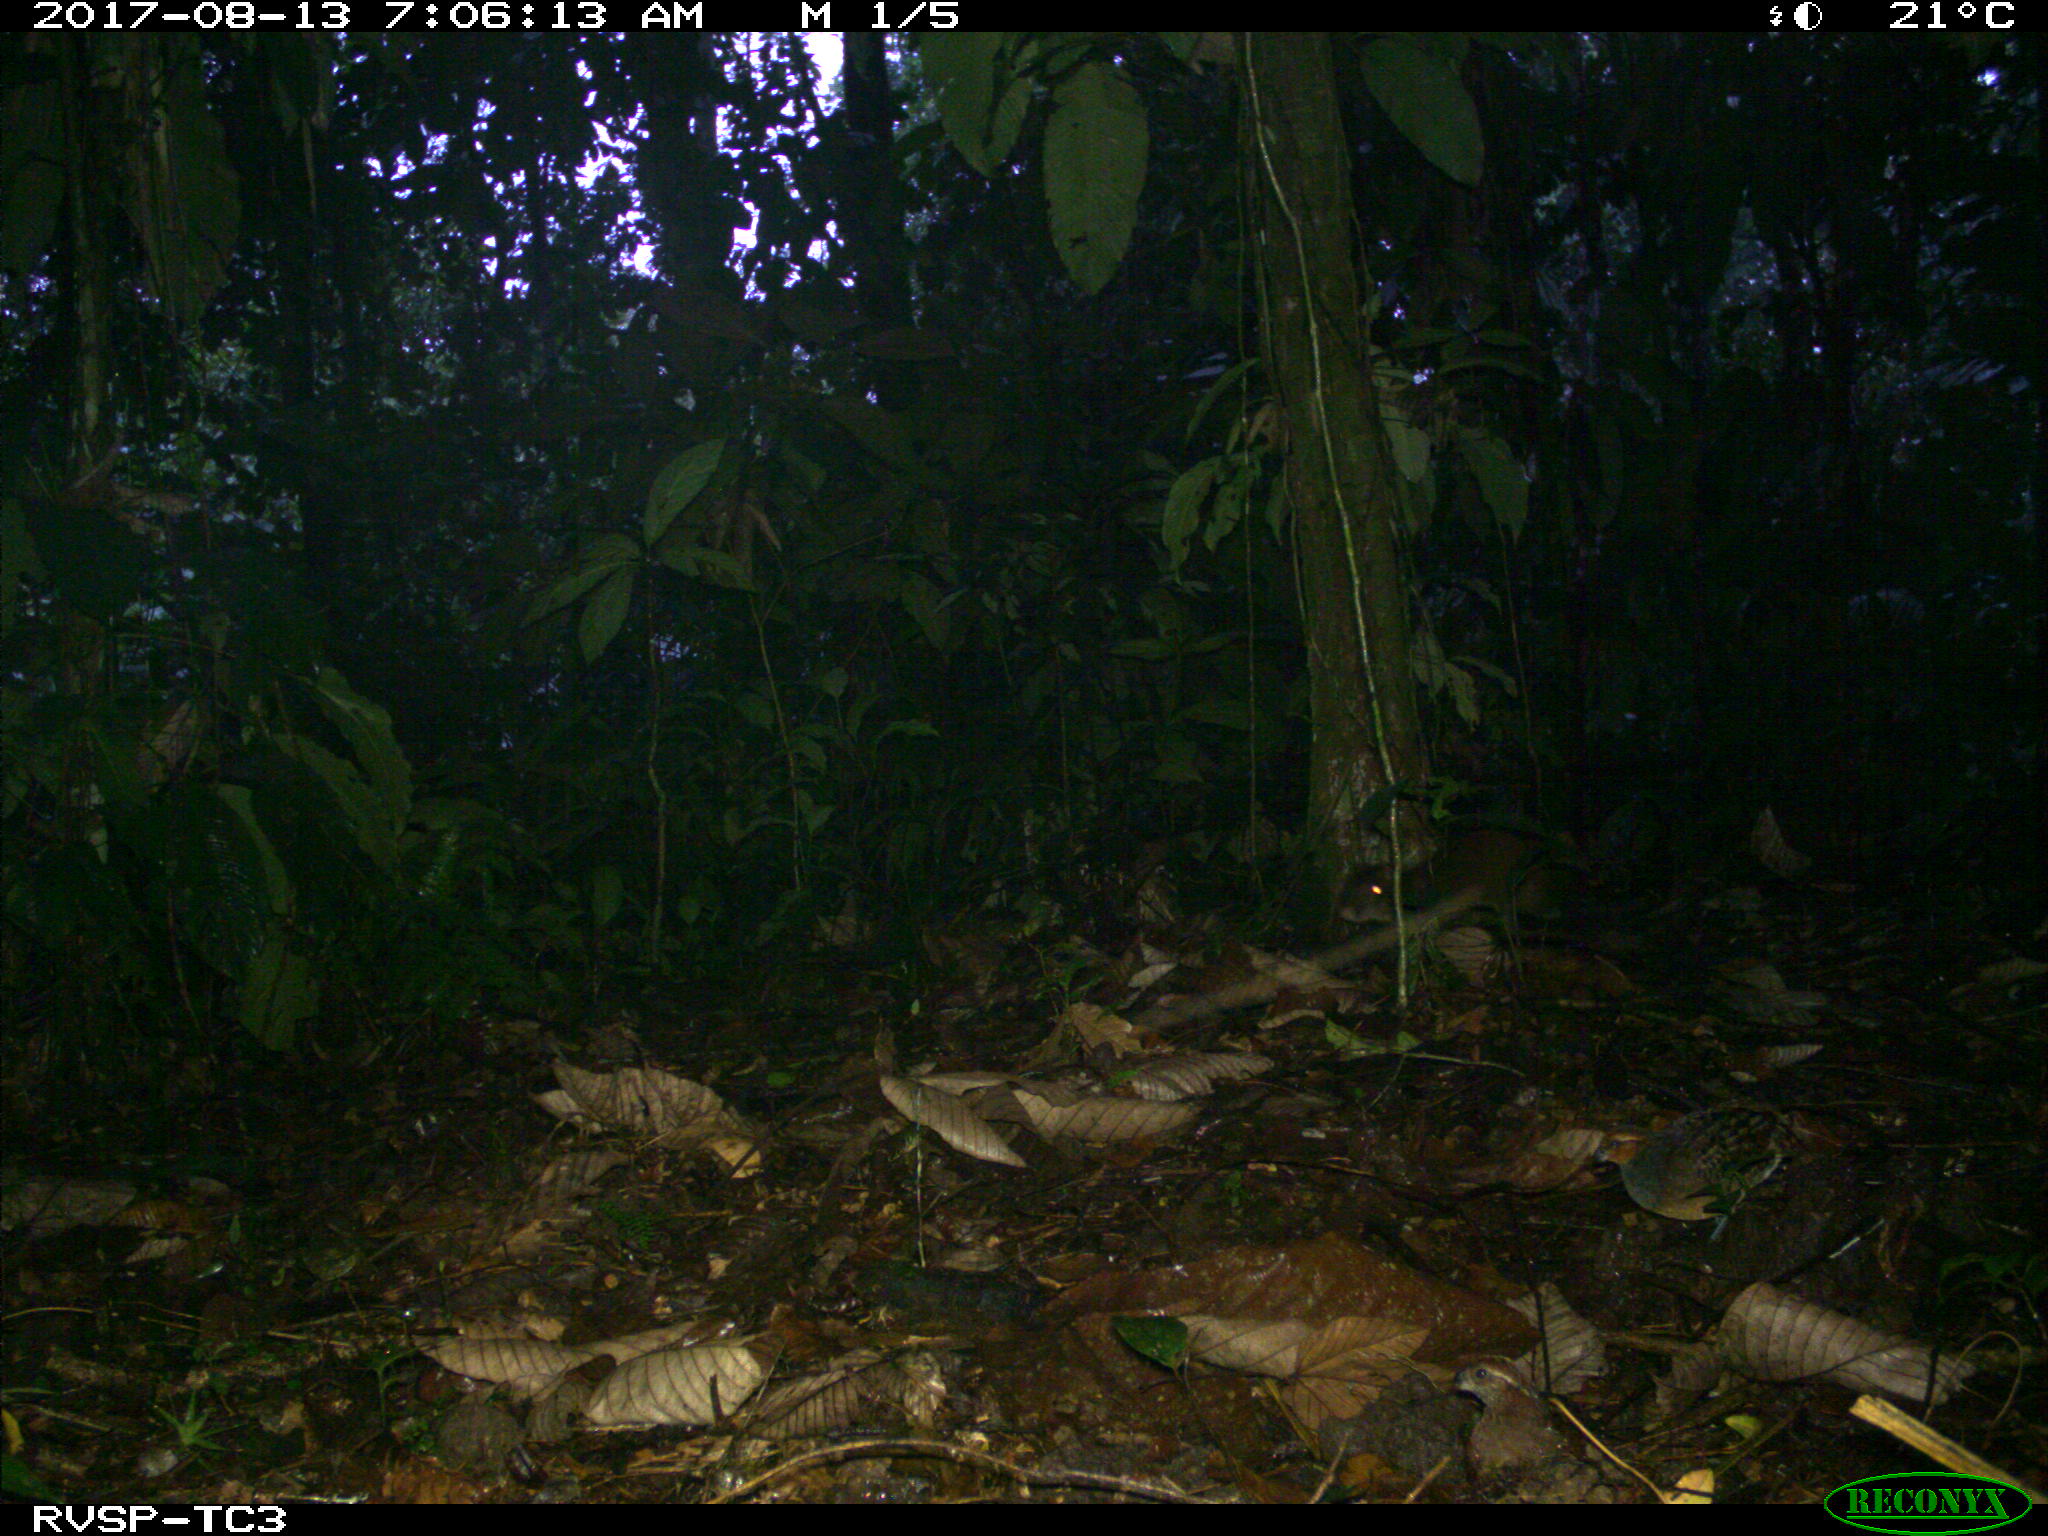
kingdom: Animalia
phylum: Chordata
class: Mammalia
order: Rodentia
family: Dasyproctidae
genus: Dasyprocta
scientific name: Dasyprocta punctata
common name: Central american agouti
